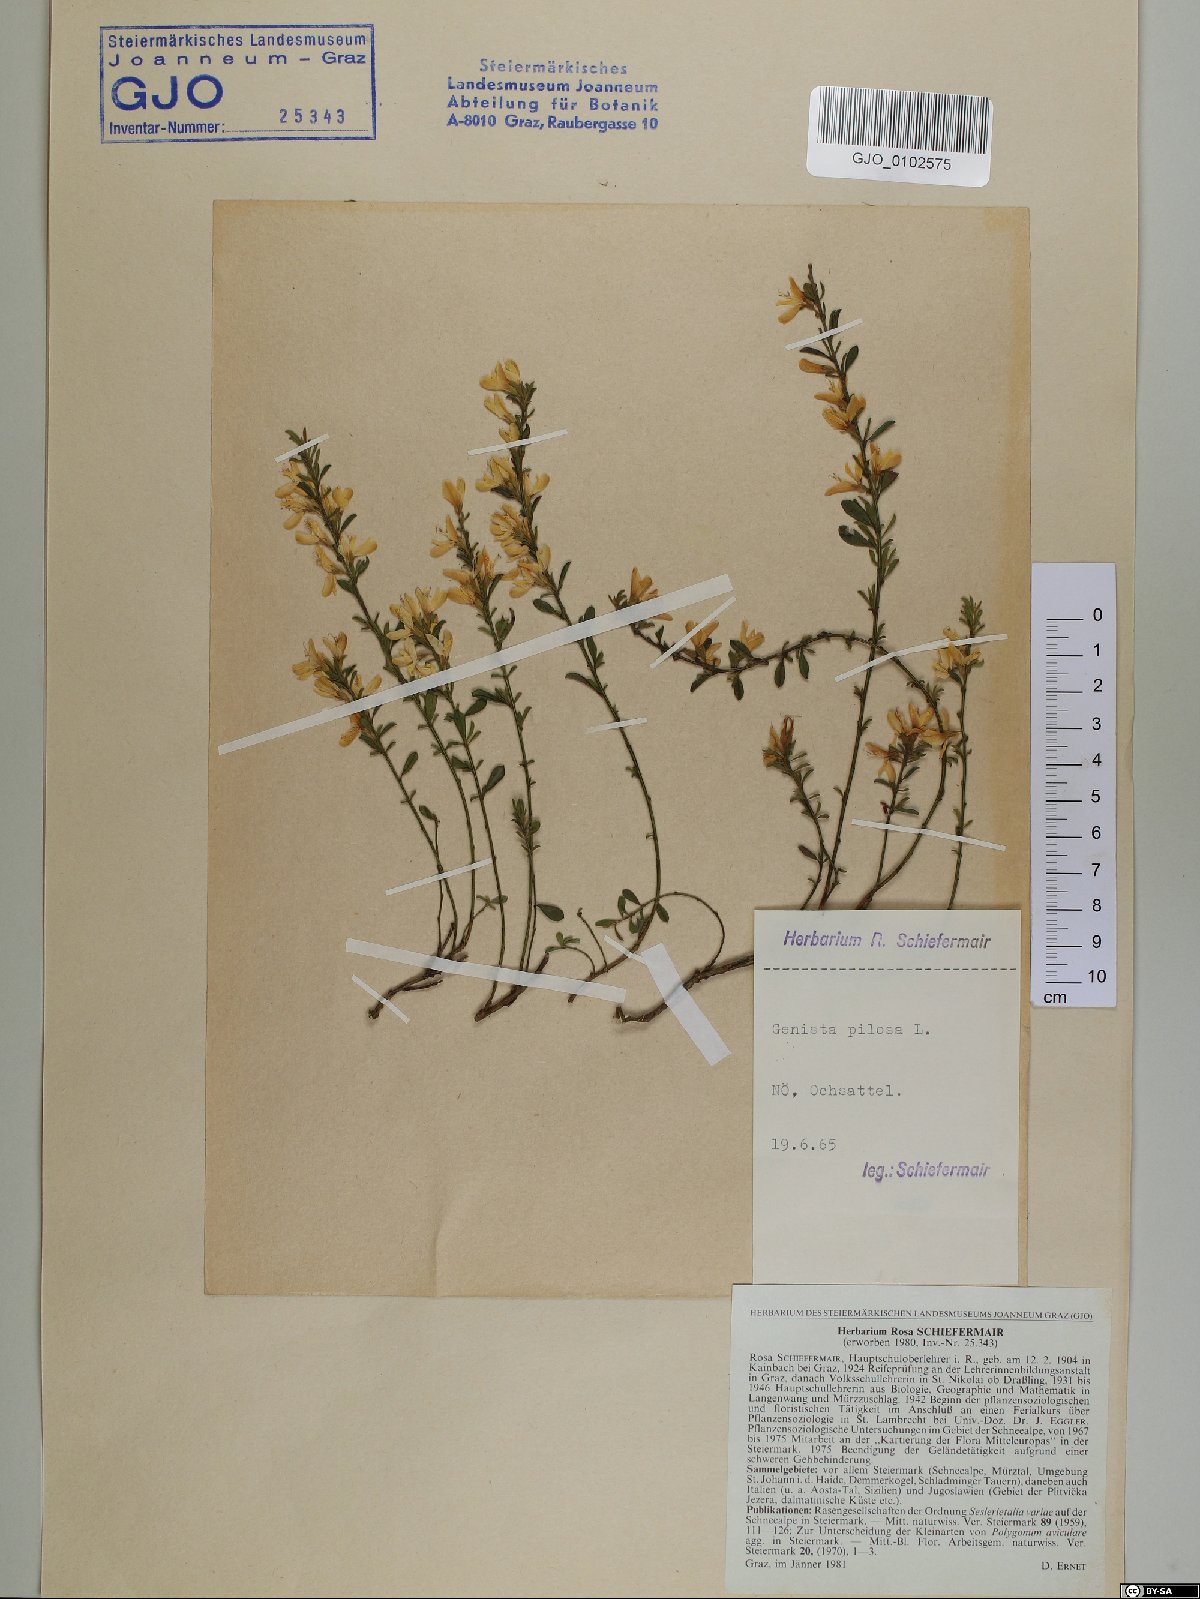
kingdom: Plantae
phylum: Tracheophyta
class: Magnoliopsida
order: Fabales
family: Fabaceae
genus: Genista
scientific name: Genista pilosa
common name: Hairy greenweed
